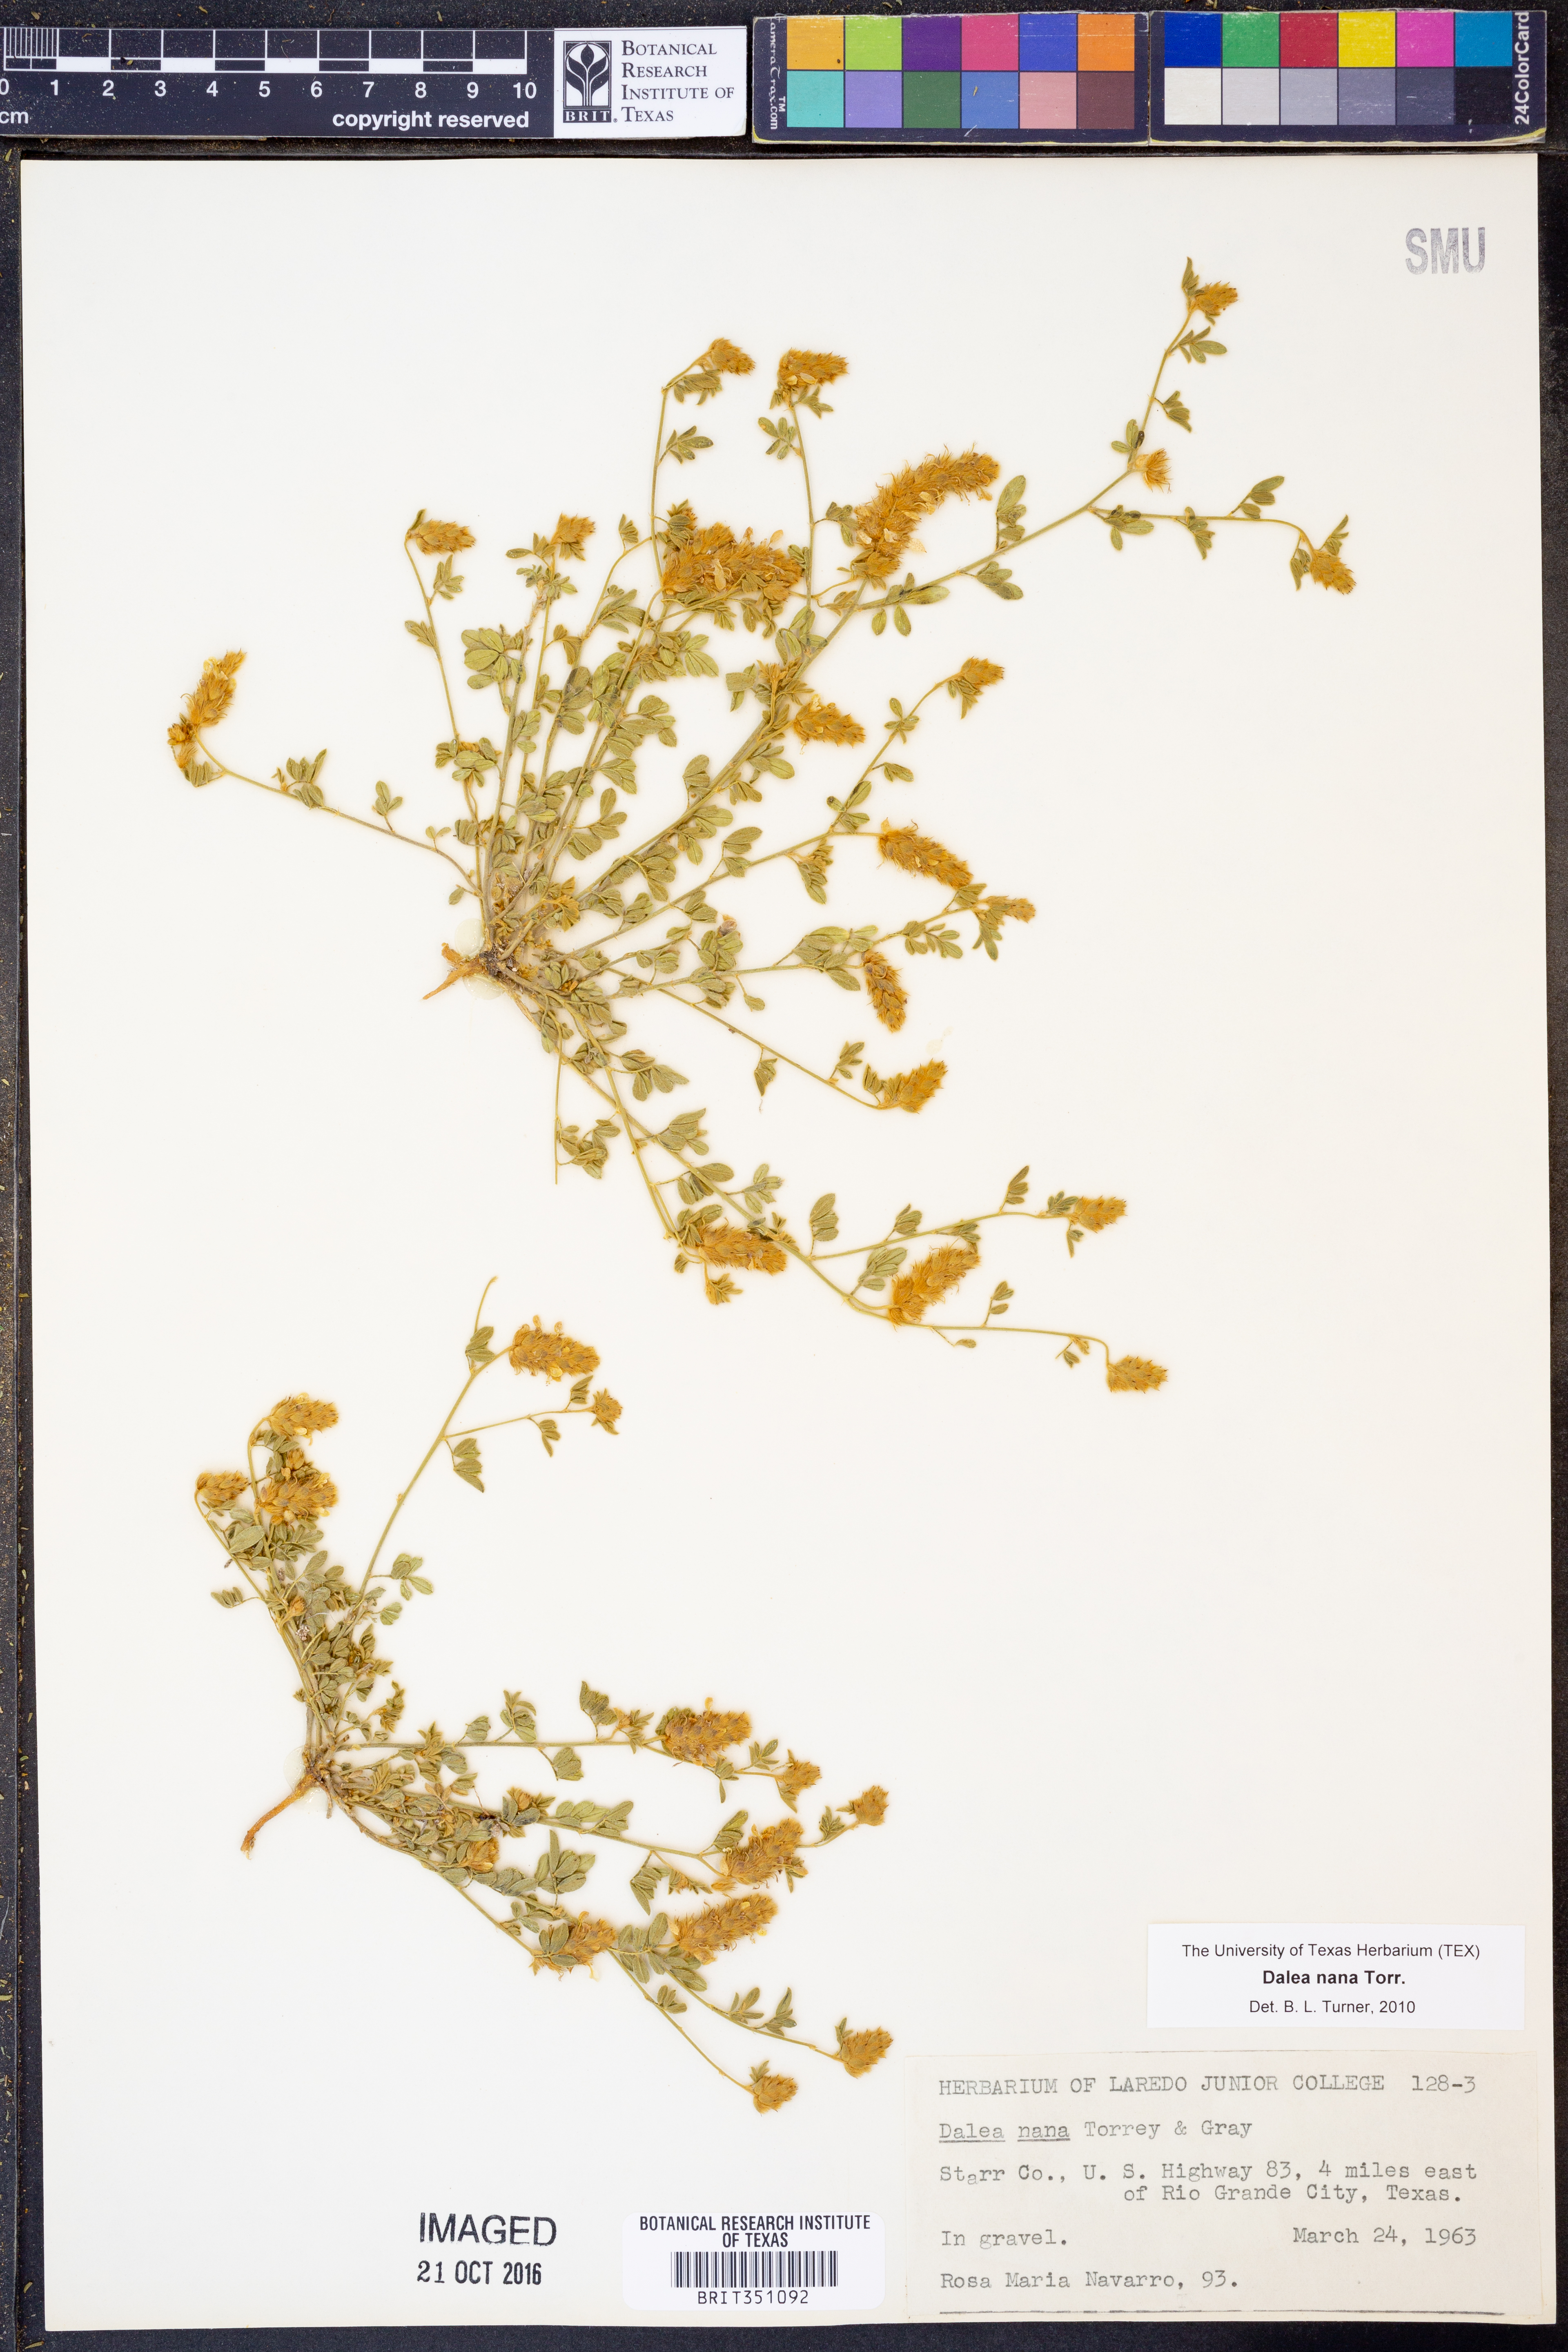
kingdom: Plantae
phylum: Tracheophyta
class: Magnoliopsida
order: Fabales
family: Fabaceae
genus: Dalea
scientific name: Dalea nana
